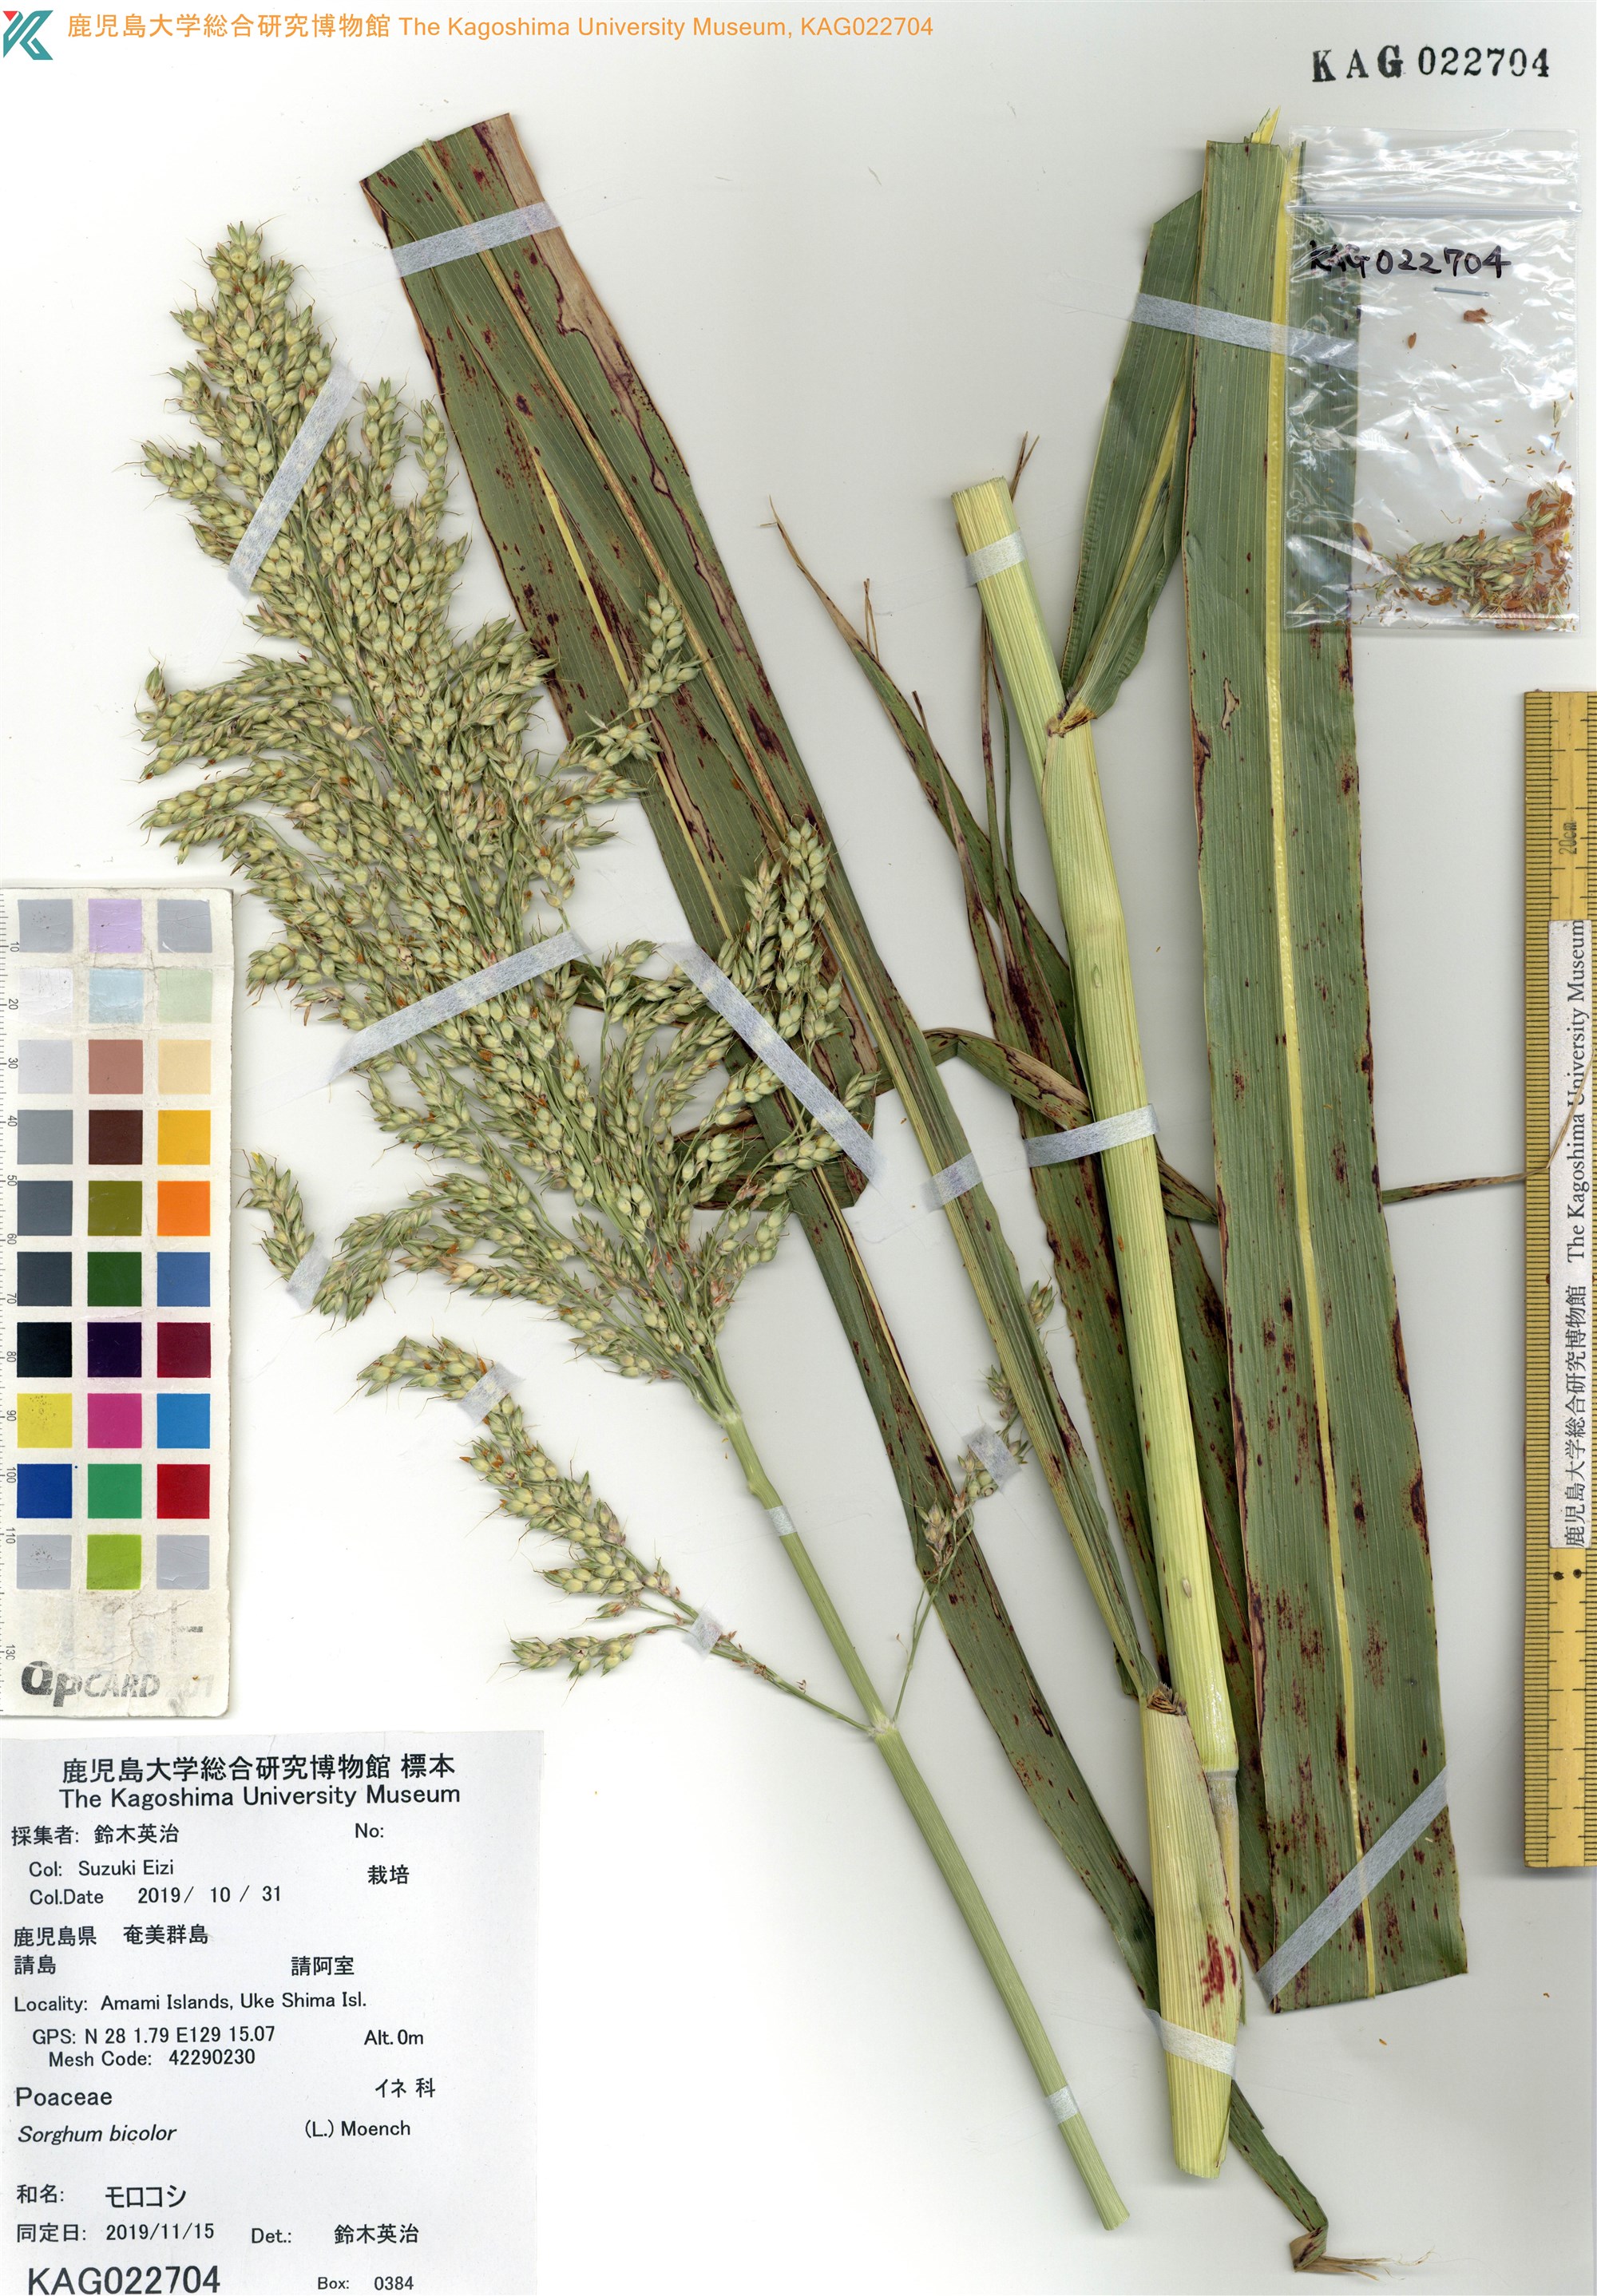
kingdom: Plantae
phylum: Tracheophyta
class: Liliopsida
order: Poales
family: Poaceae
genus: Sorghum
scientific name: Sorghum bicolor
